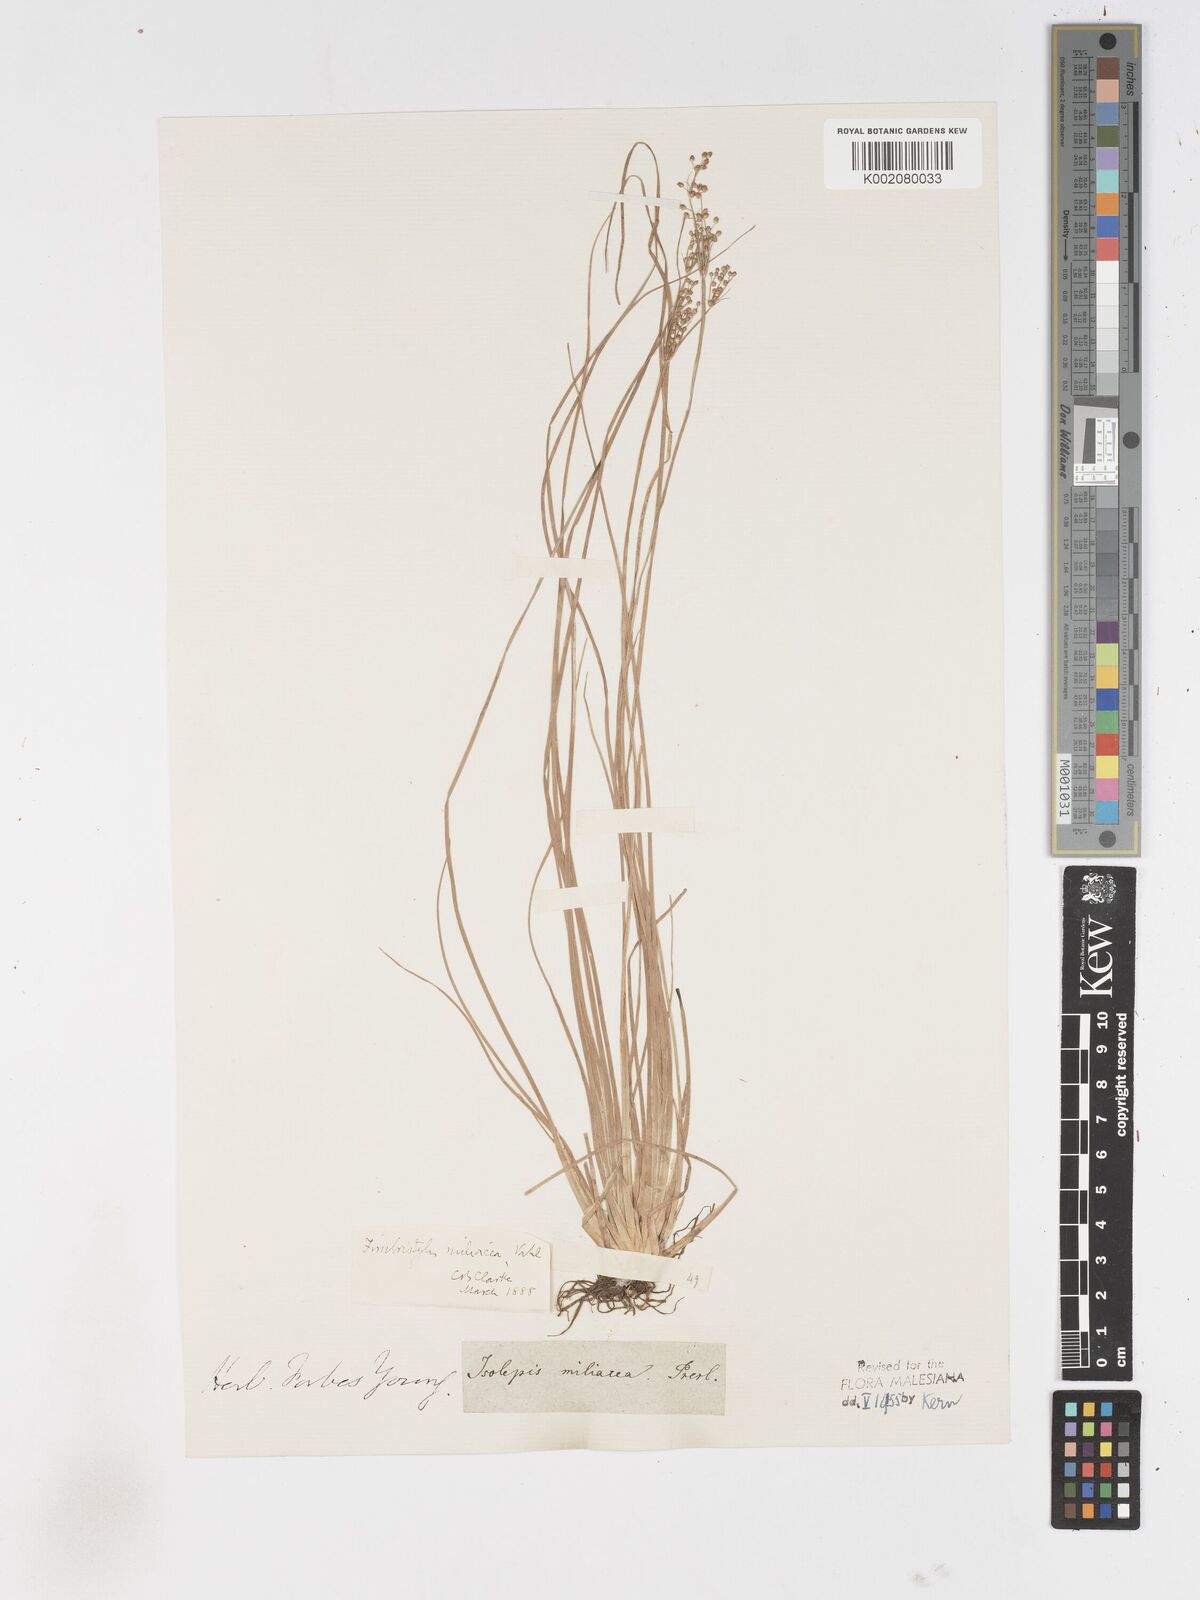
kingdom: Plantae
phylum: Tracheophyta
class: Liliopsida
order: Poales
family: Cyperaceae
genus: Fimbristylis
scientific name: Fimbristylis littoralis
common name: Fimbry
